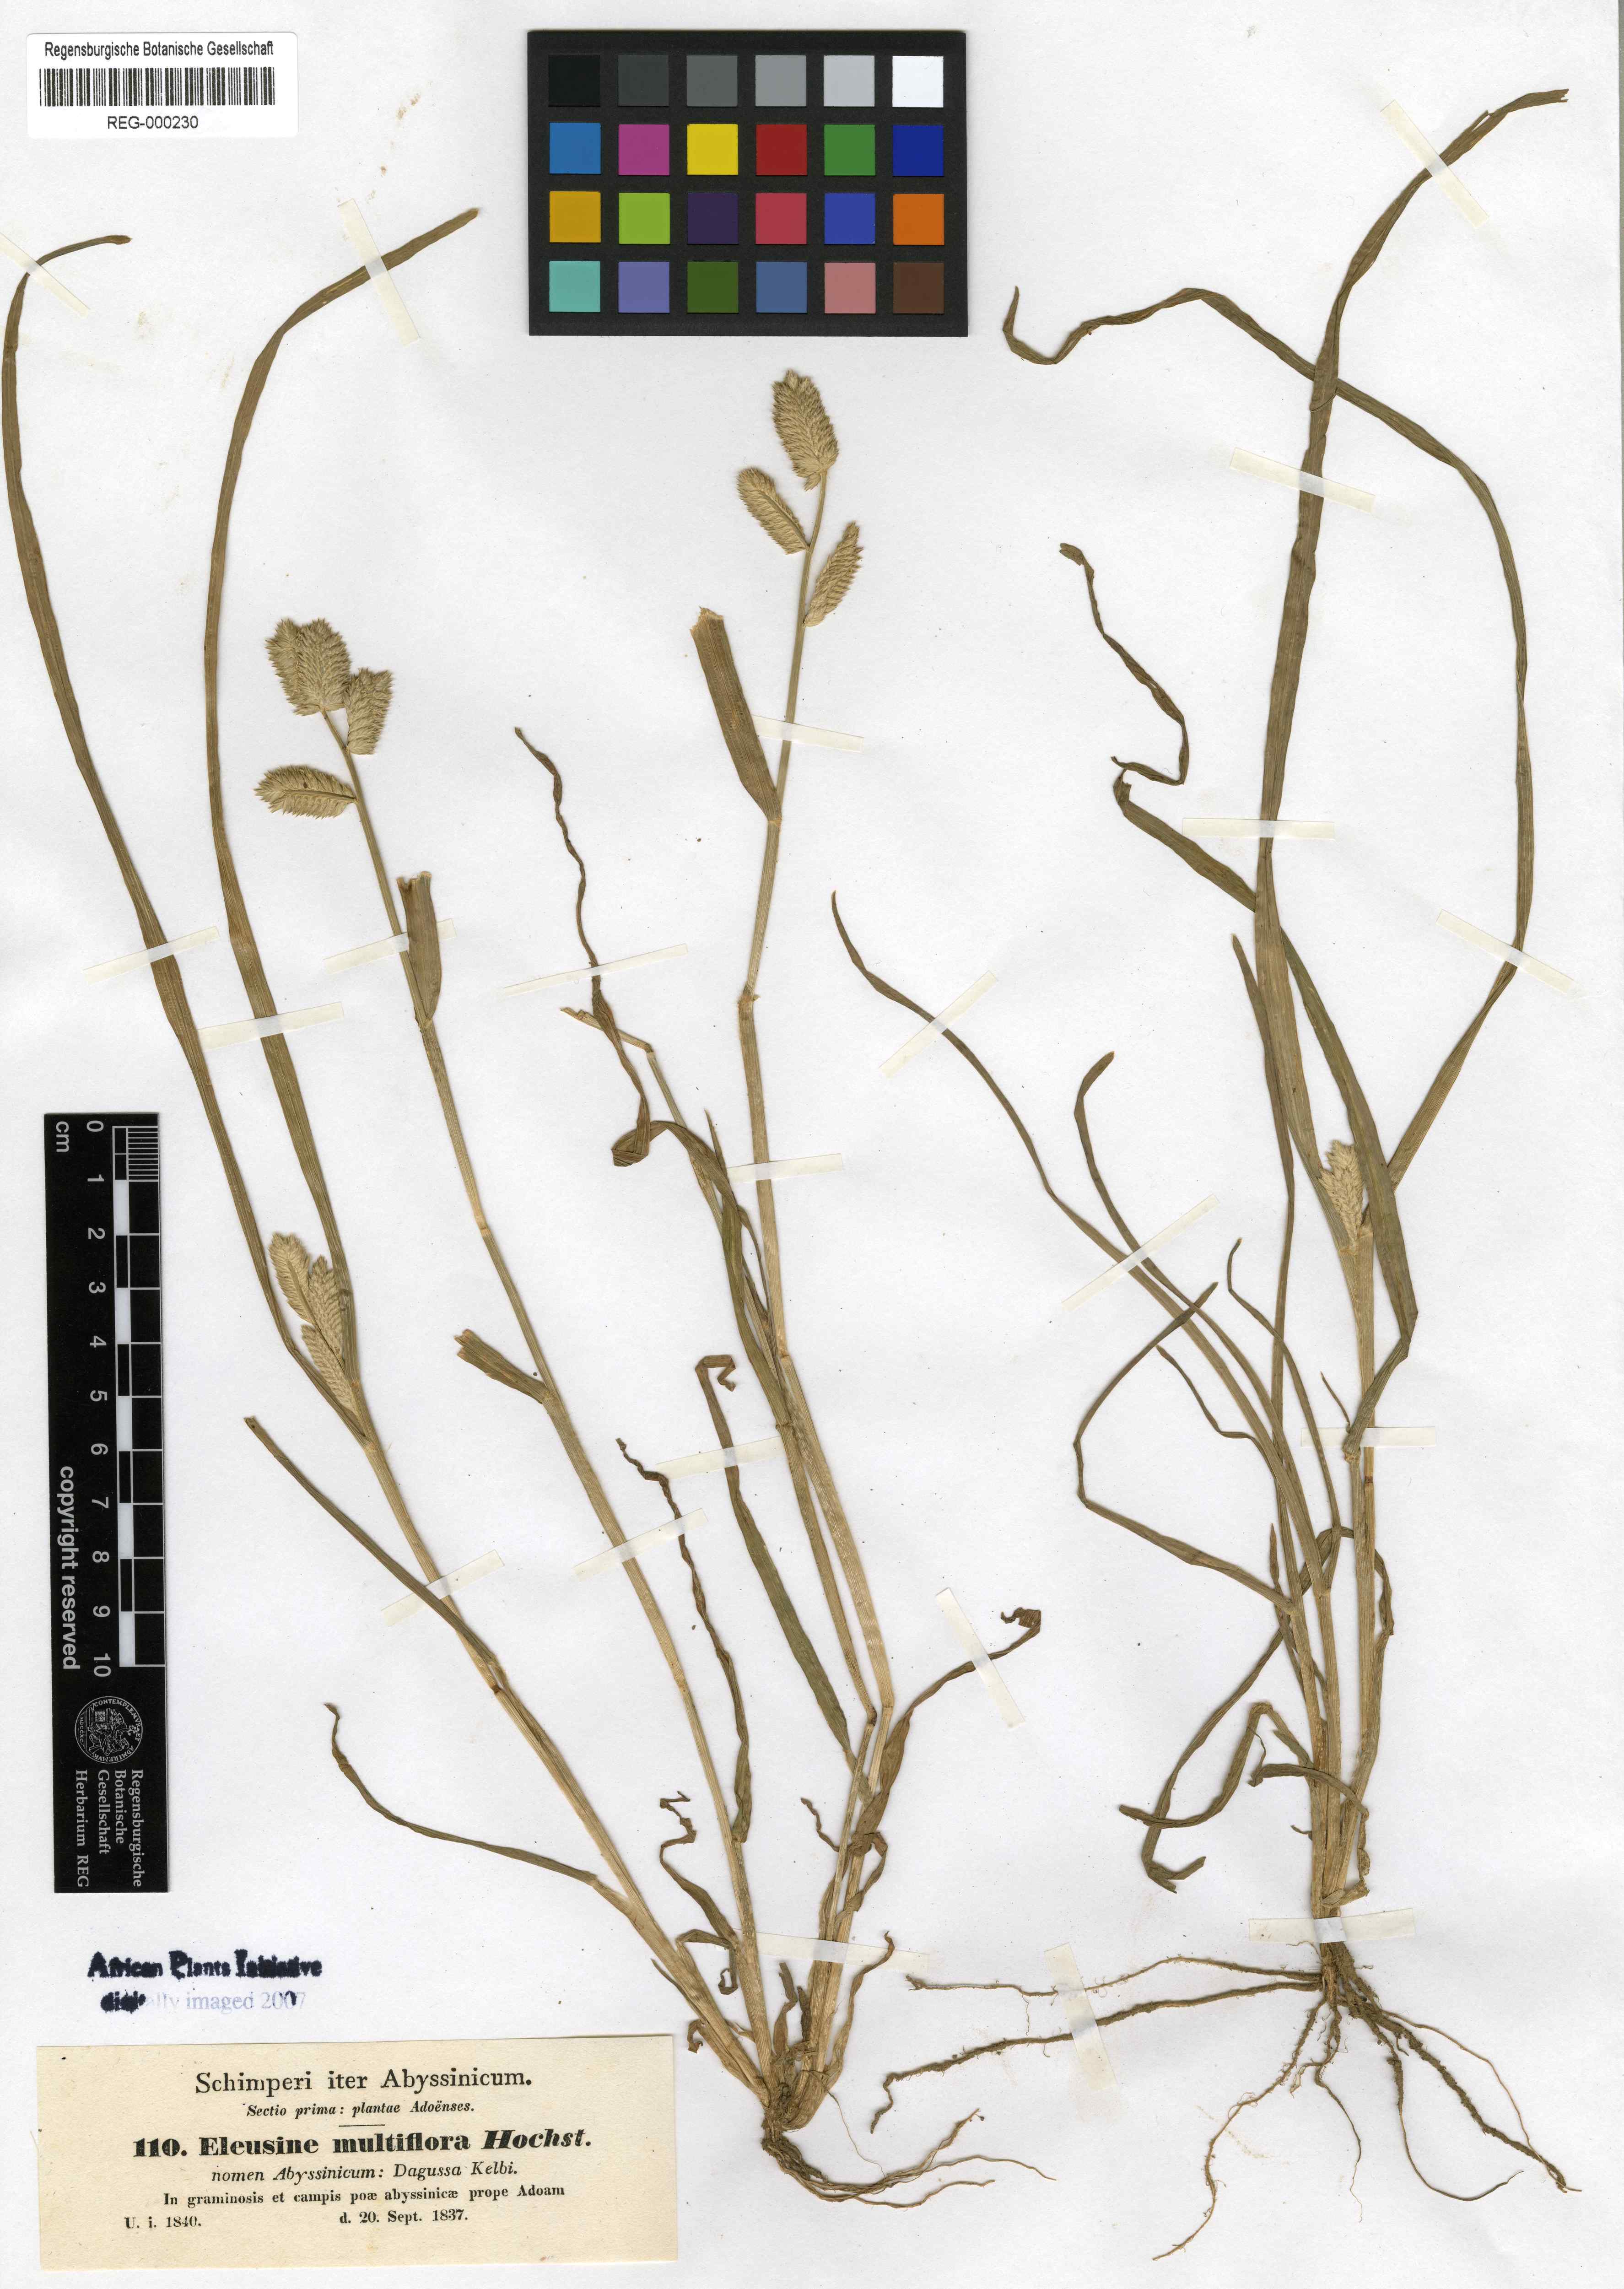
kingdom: Plantae
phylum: Tracheophyta
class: Liliopsida
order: Poales
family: Poaceae
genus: Eleusine
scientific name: Eleusine multiflora
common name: Fat-spiked yard-grass
